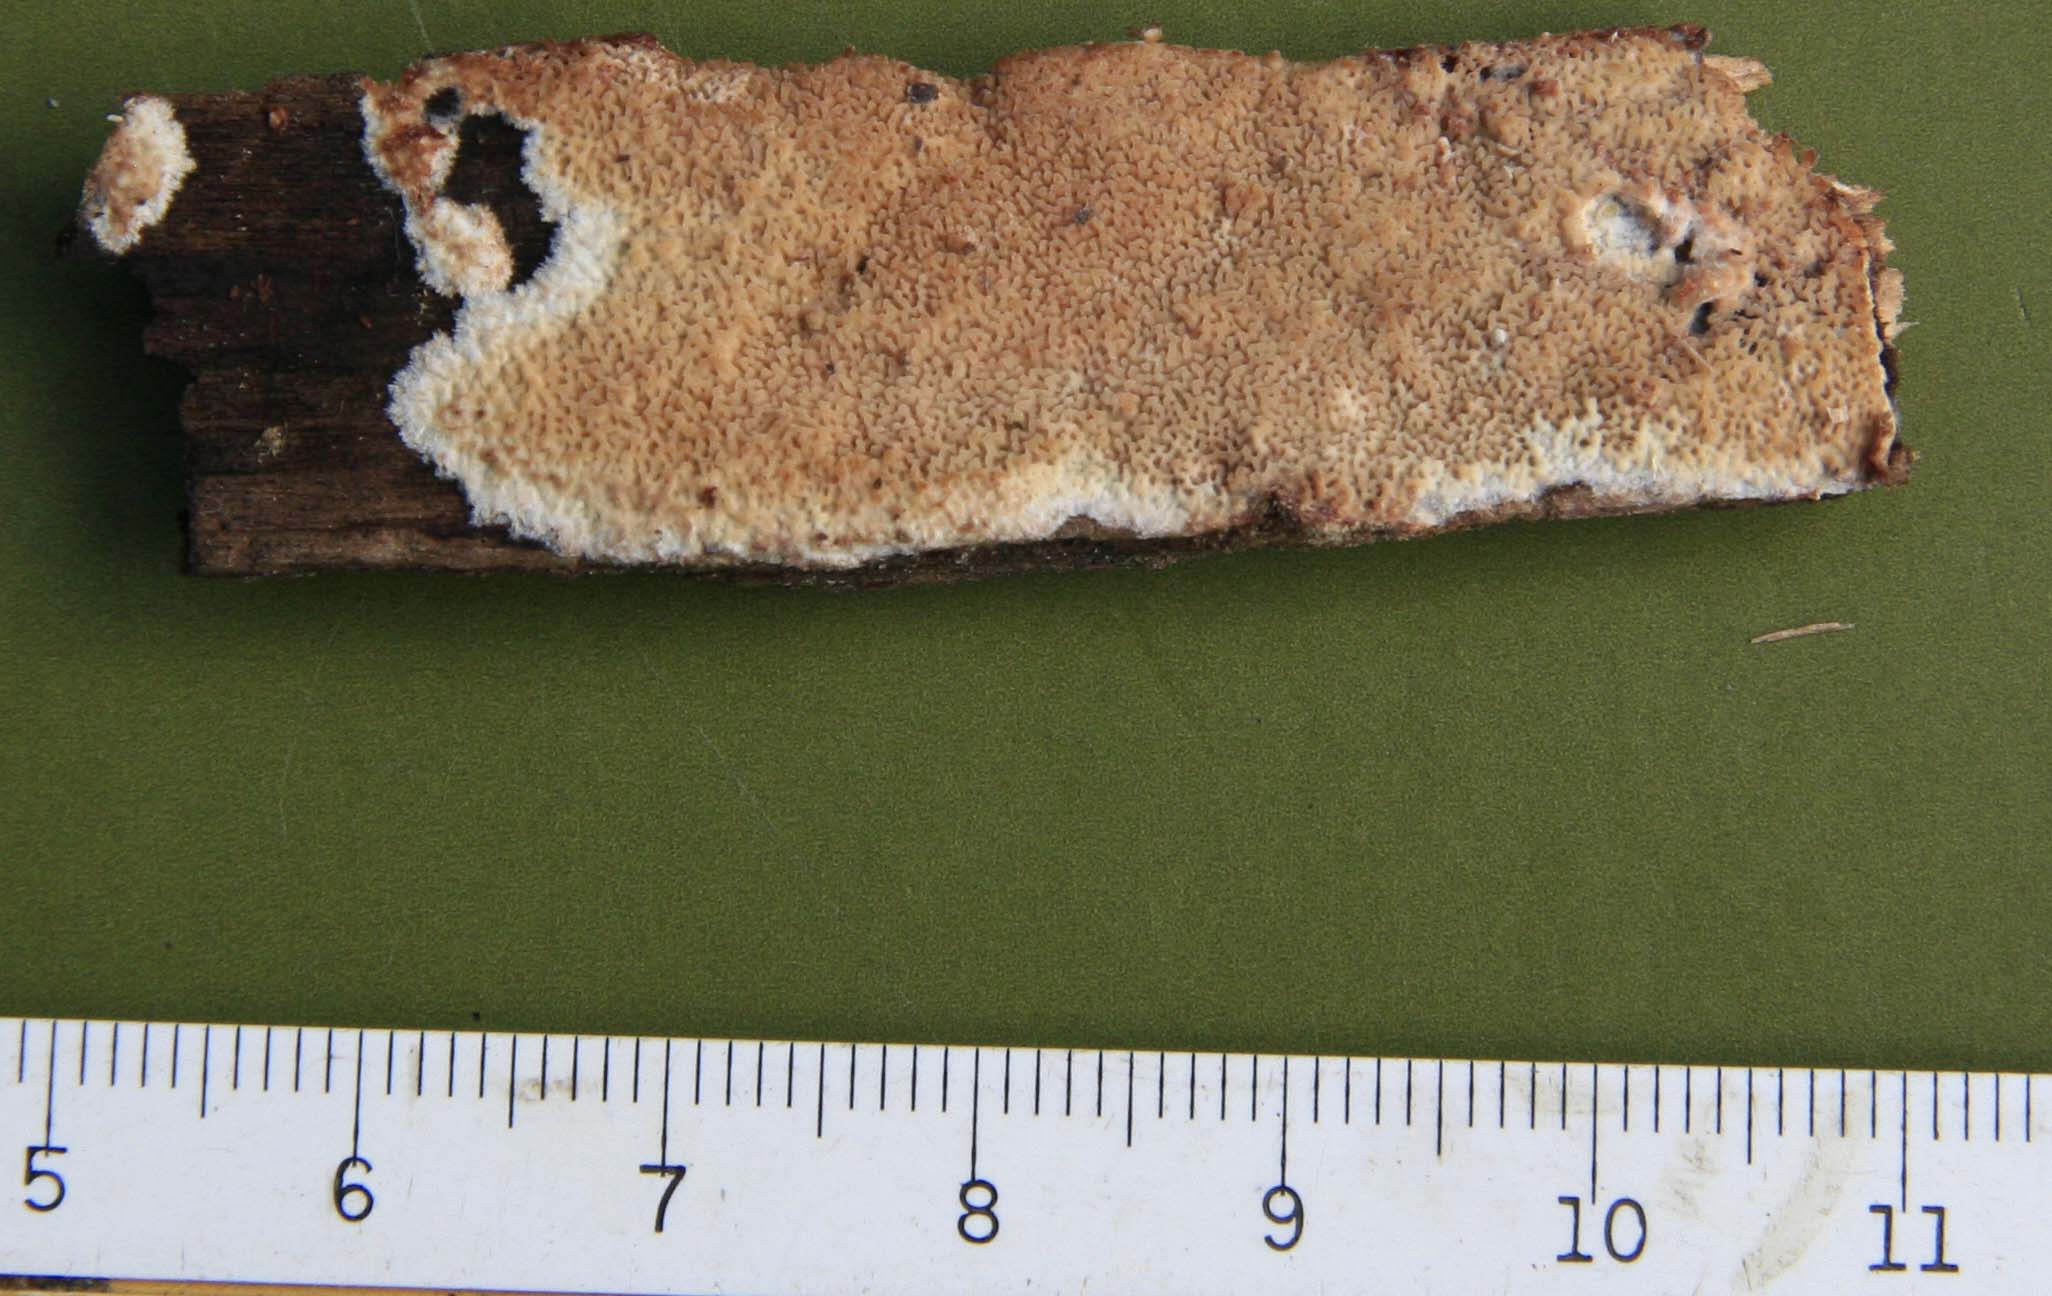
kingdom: Fungi
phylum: Basidiomycota
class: Agaricomycetes
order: Polyporales
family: Meruliaceae
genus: Phlebia
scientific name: Phlebia rufa
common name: ege-åresvamp
